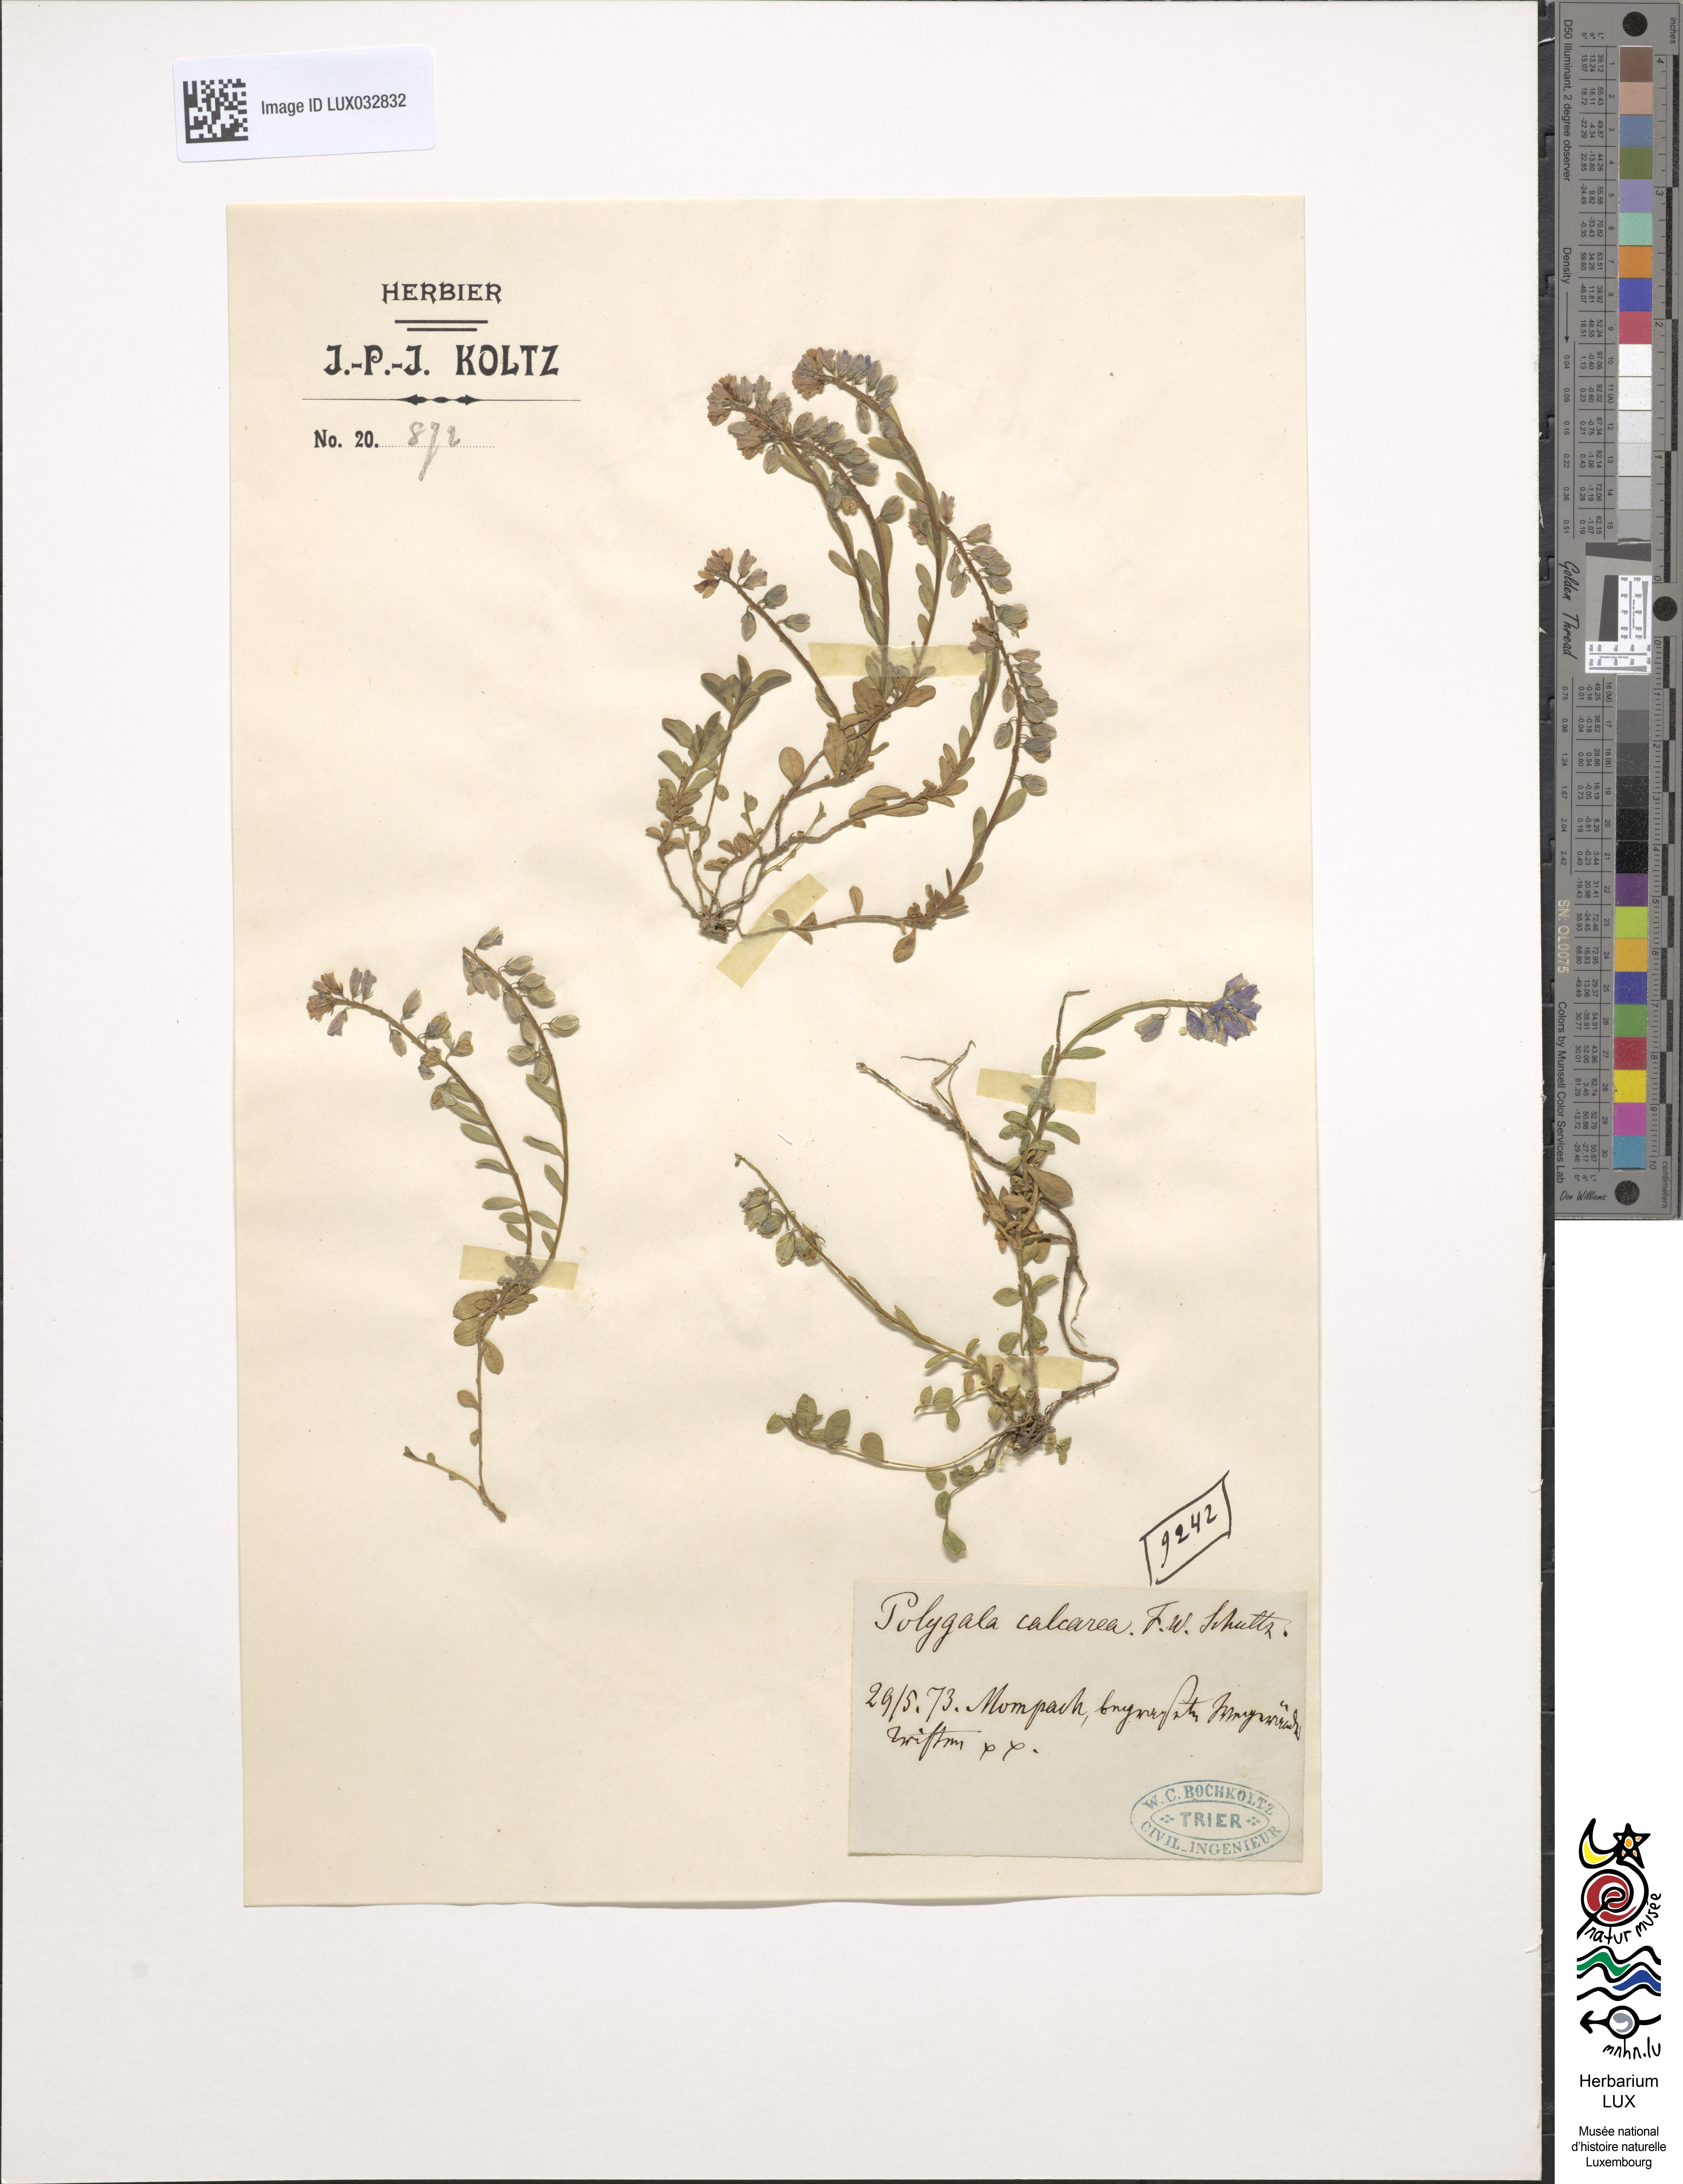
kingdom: Plantae
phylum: Tracheophyta
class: Magnoliopsida
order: Fabales
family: Polygalaceae
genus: Polygala
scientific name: Polygala calcarea
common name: Chalk milkwort
